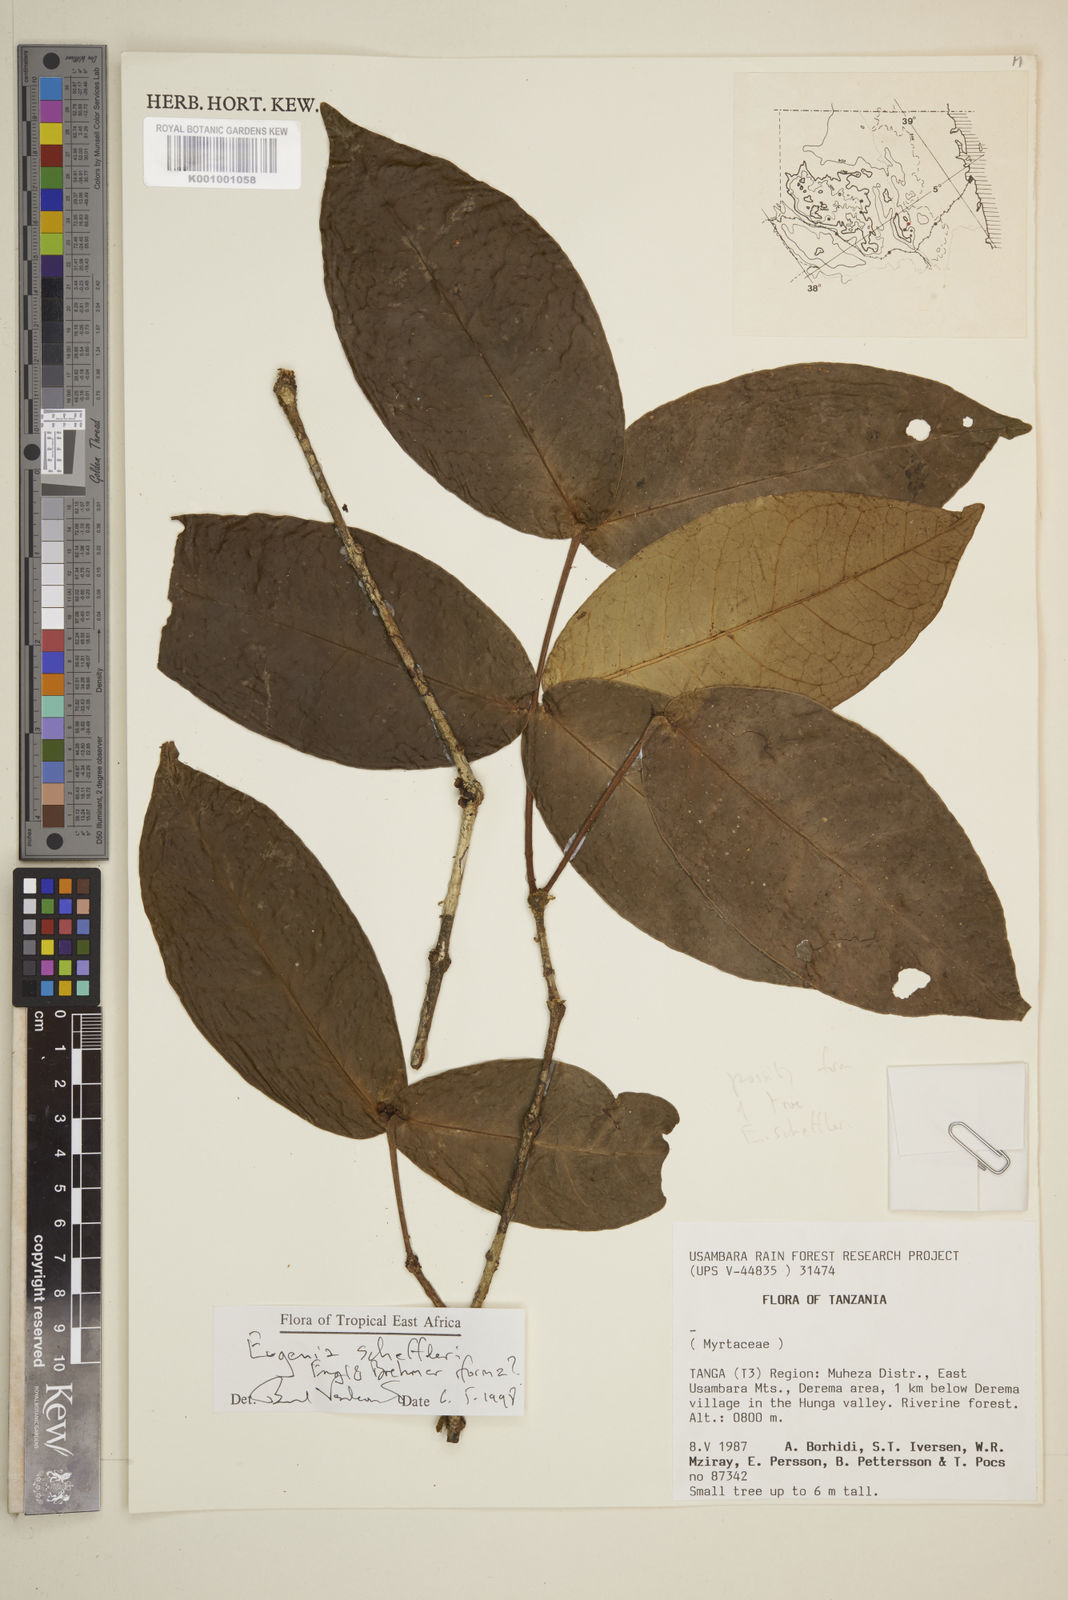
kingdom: Plantae
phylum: Tracheophyta
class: Magnoliopsida
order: Myrtales
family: Myrtaceae
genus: Eugenia
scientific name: Eugenia scheffleri
